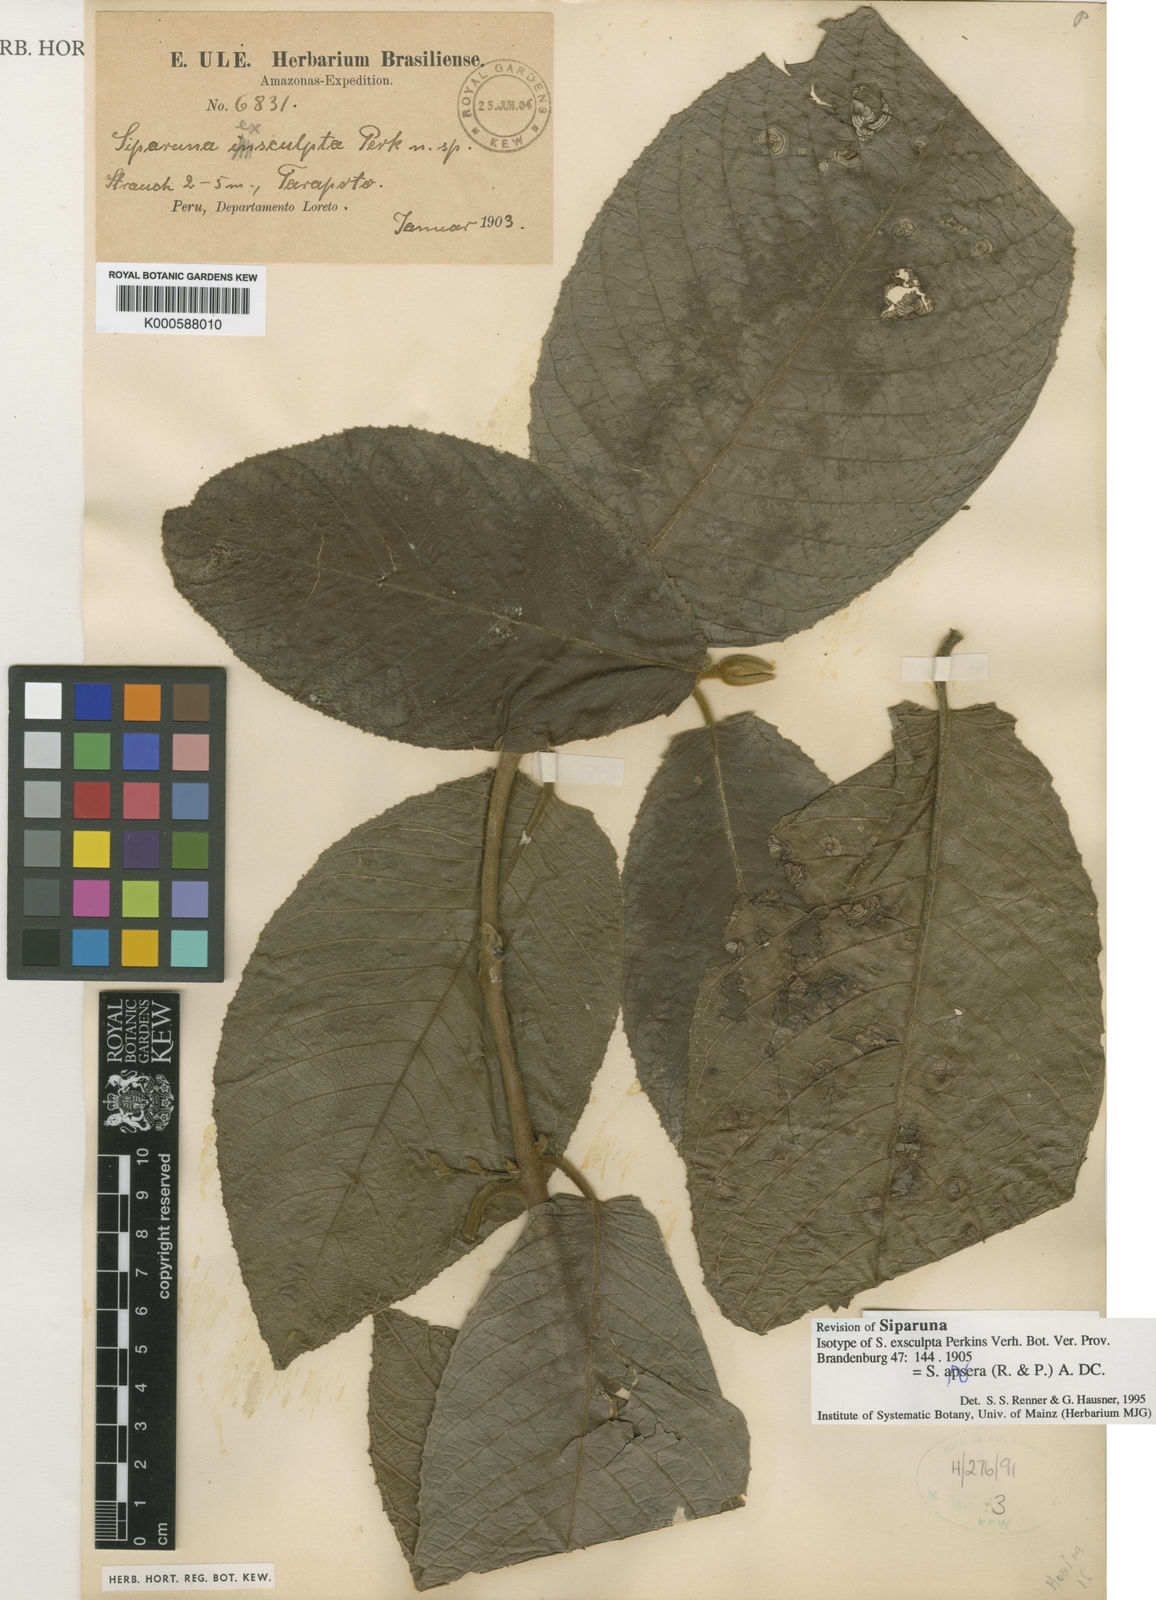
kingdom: Plantae
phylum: Tracheophyta
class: Magnoliopsida
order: Laurales
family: Siparunaceae
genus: Siparuna
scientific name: Siparuna aspera
